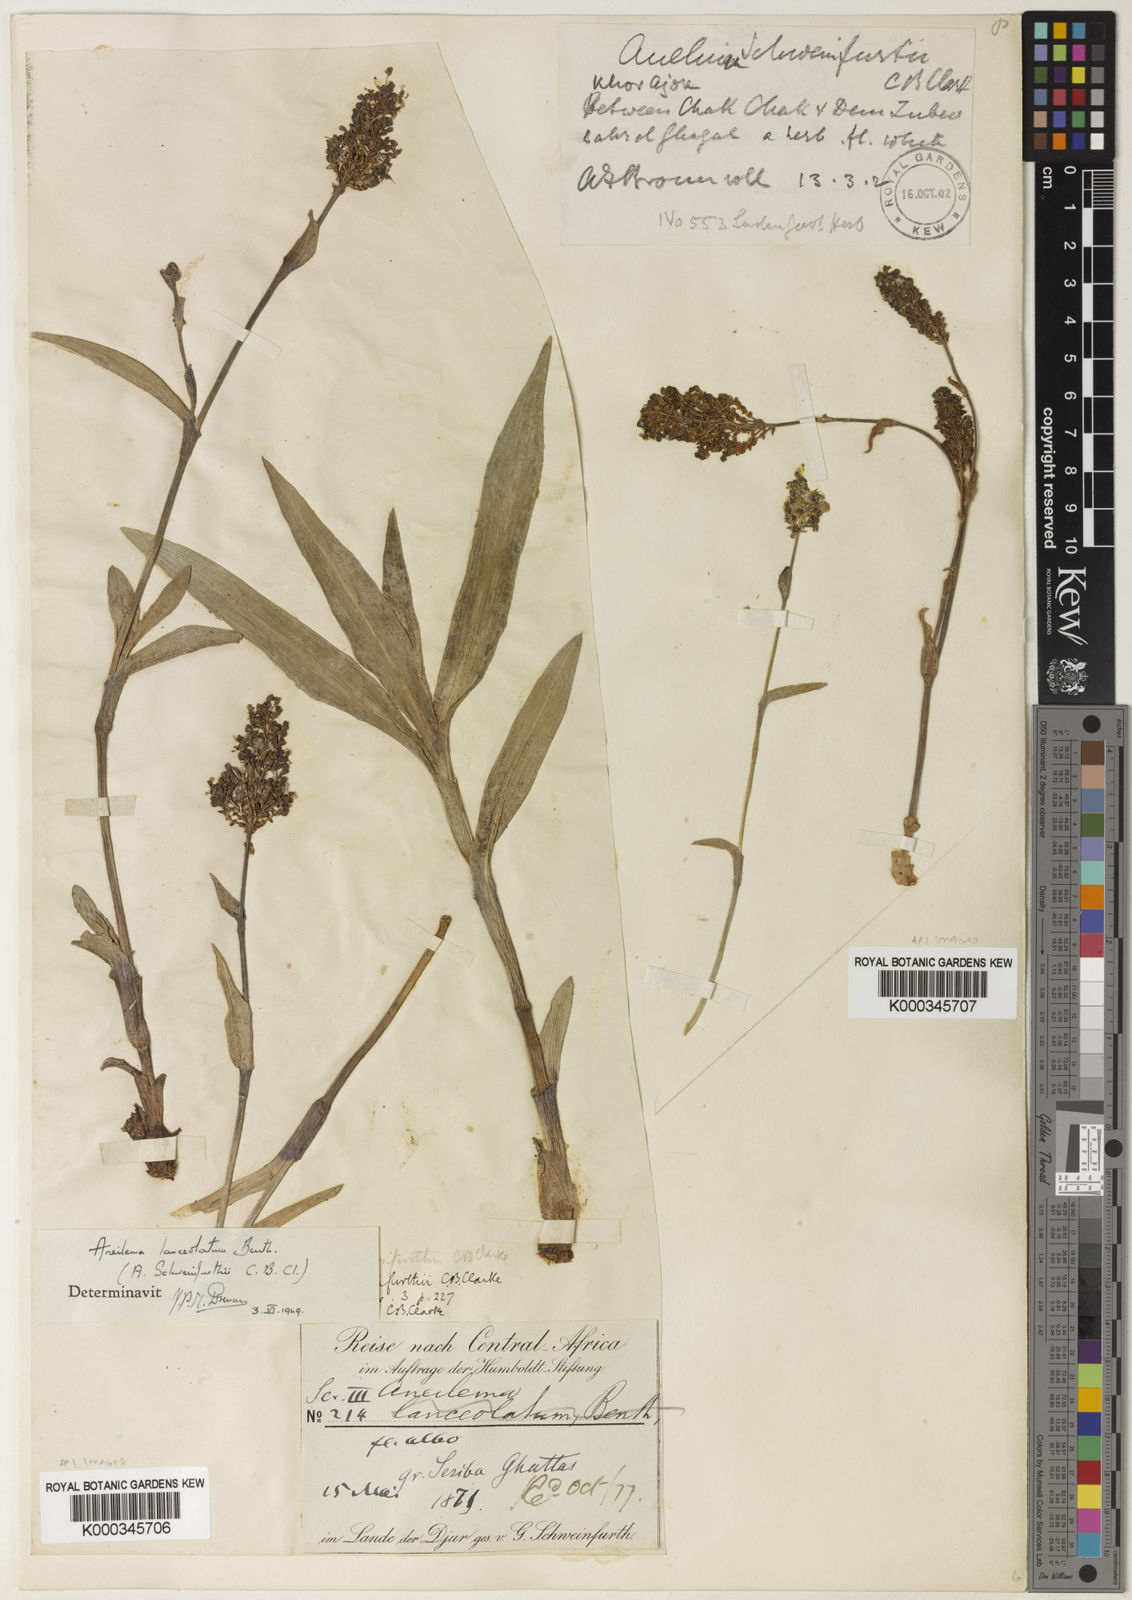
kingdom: Plantae
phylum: Tracheophyta
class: Liliopsida
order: Commelinales
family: Commelinaceae
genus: Aneilema
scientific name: Aneilema lanceolatum
